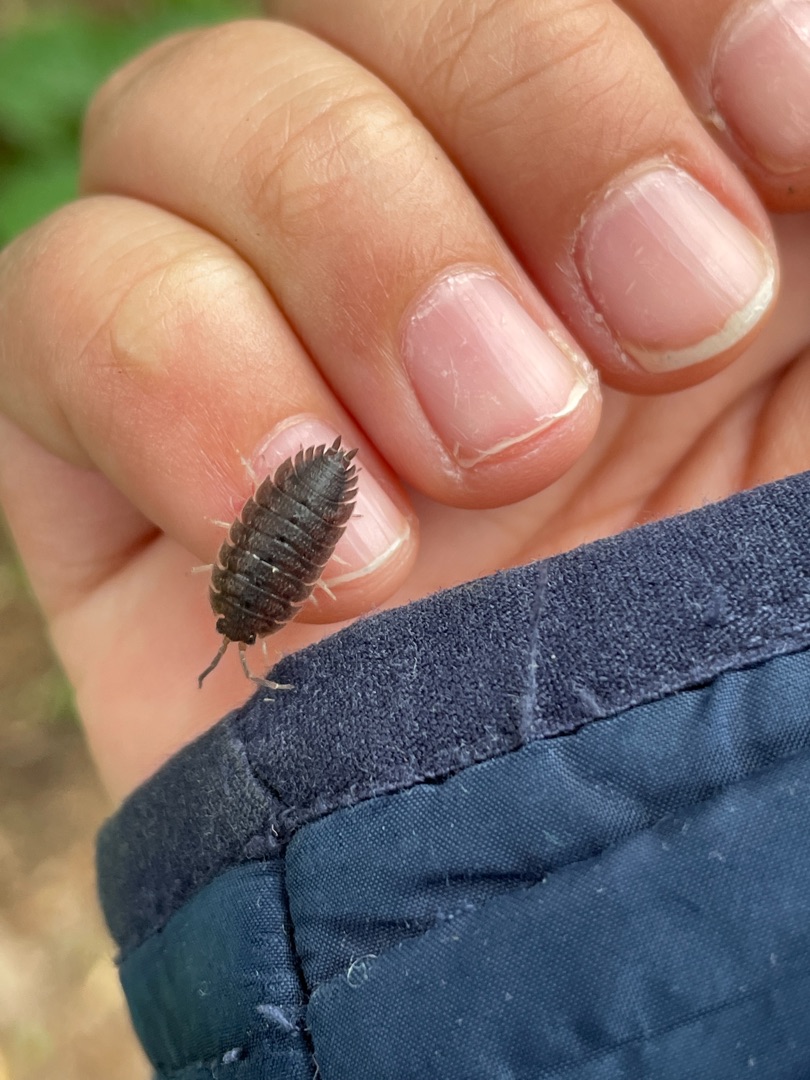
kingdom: Animalia
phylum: Arthropoda
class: Malacostraca
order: Isopoda
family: Porcellionidae
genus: Porcellio
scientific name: Porcellio scaber
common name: Grå bænkebider
